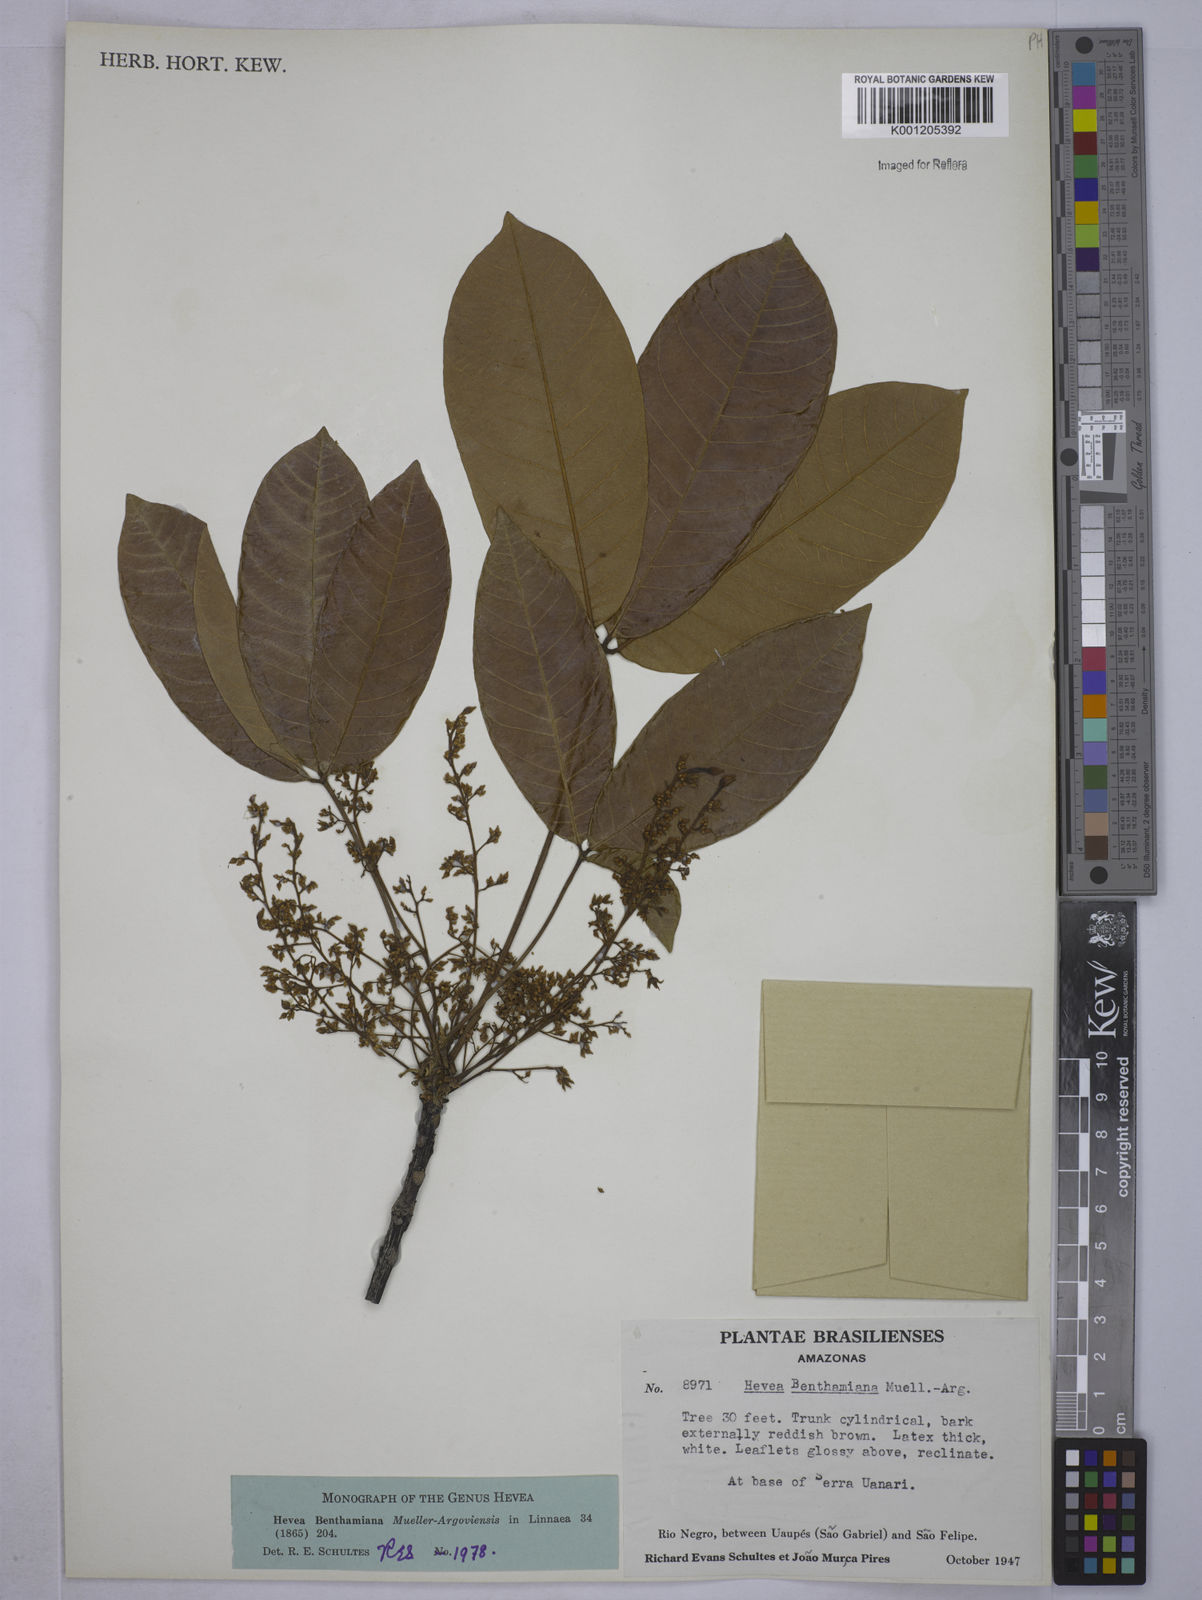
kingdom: Plantae
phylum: Tracheophyta
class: Magnoliopsida
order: Malpighiales
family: Euphorbiaceae
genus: Hevea
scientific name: Hevea
